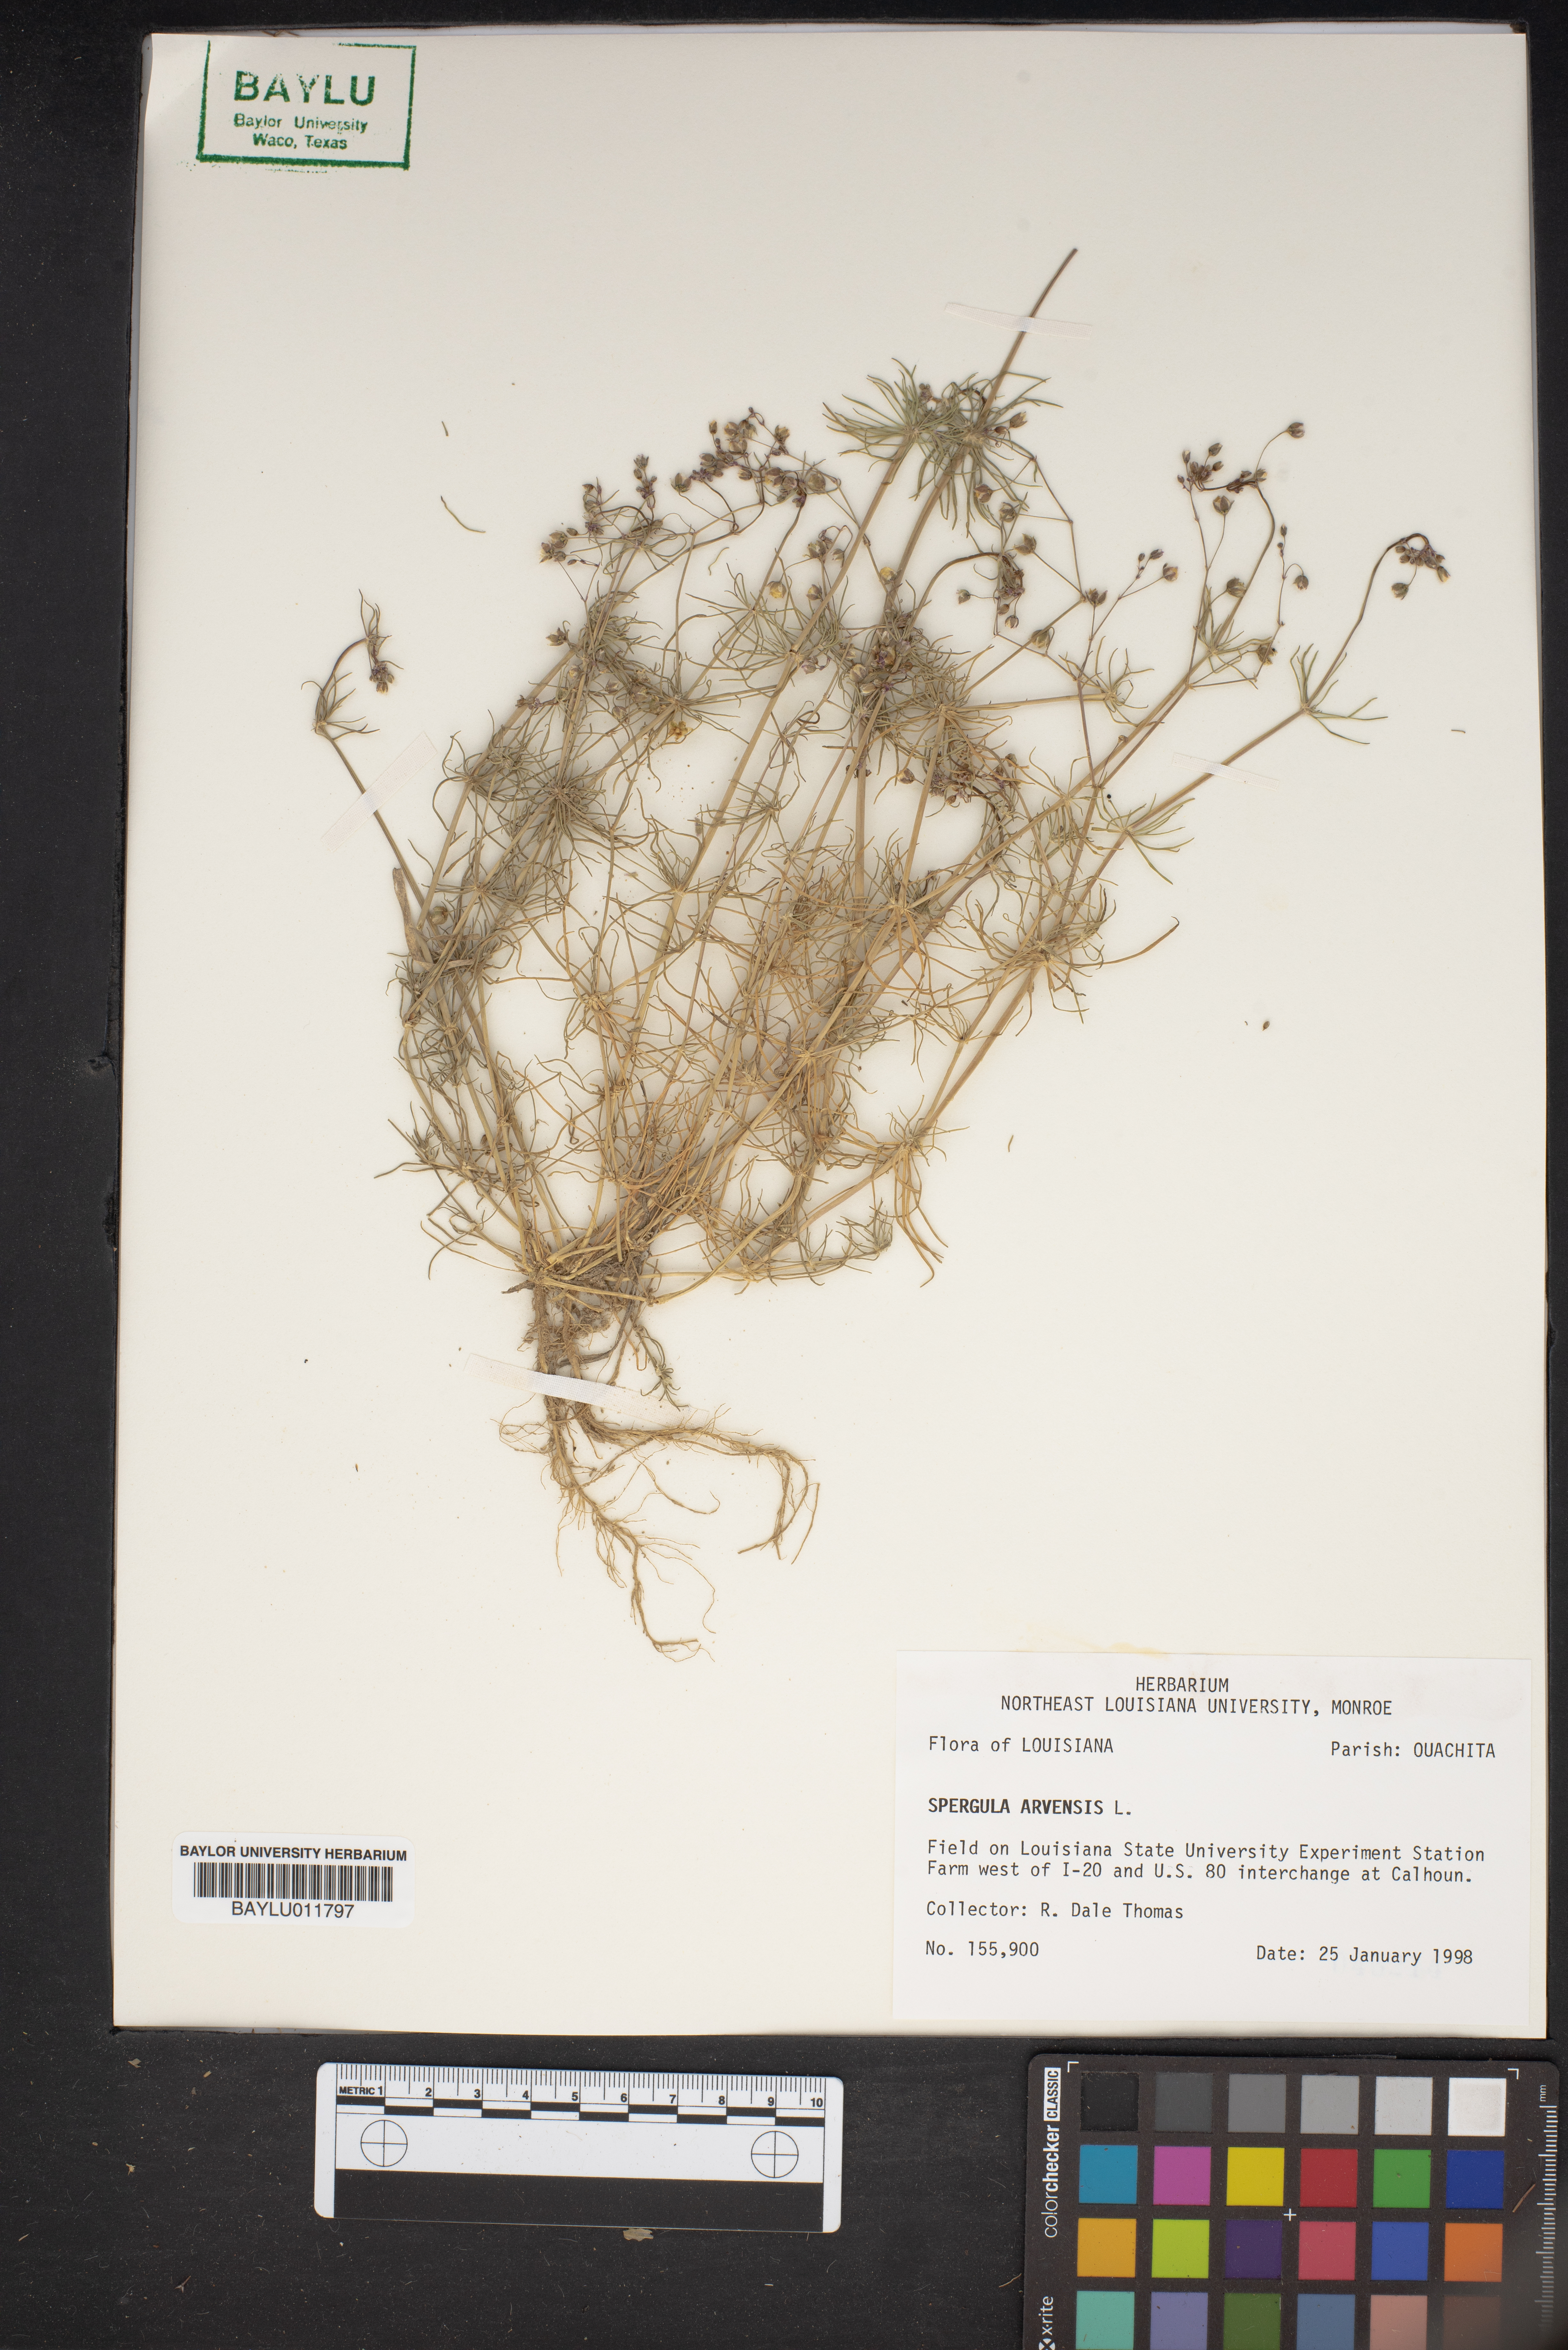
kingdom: Plantae
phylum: Tracheophyta
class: Magnoliopsida
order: Caryophyllales
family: Caryophyllaceae
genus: Spergula
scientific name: Spergula arvensis
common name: Corn spurrey
